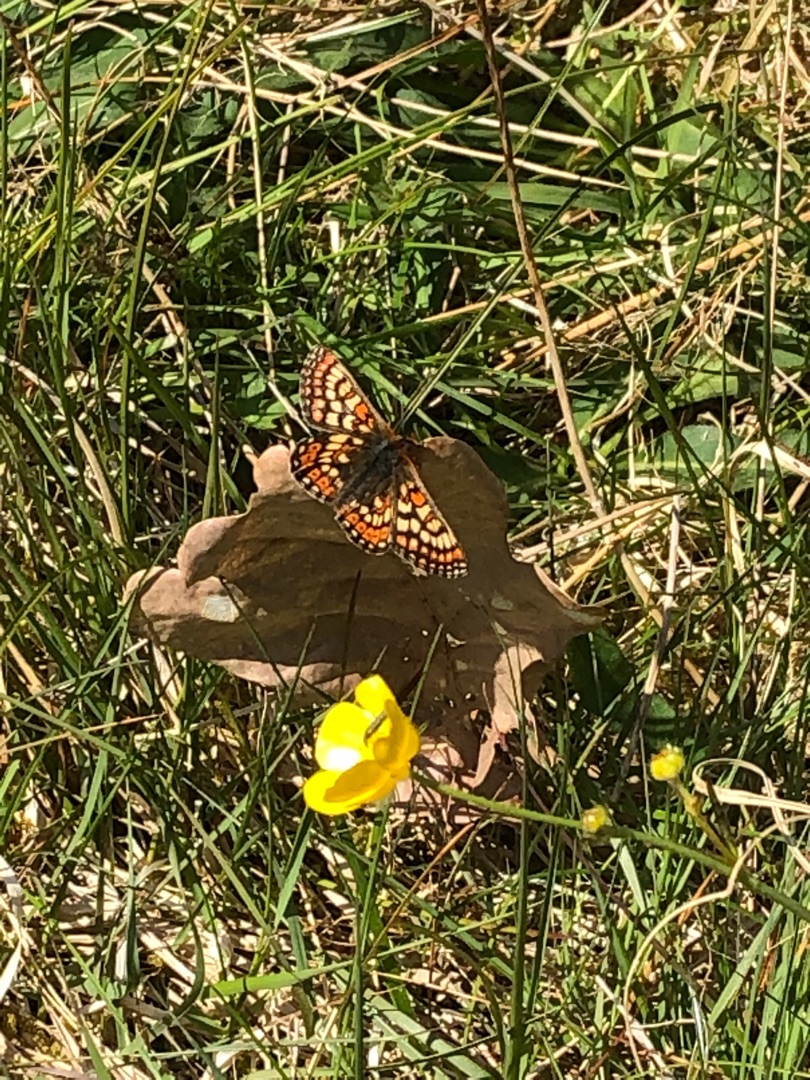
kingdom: Animalia
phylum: Arthropoda
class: Insecta
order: Lepidoptera
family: Nymphalidae
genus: Euphydryas
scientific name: Euphydryas aurinia
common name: Hedepletvinge
